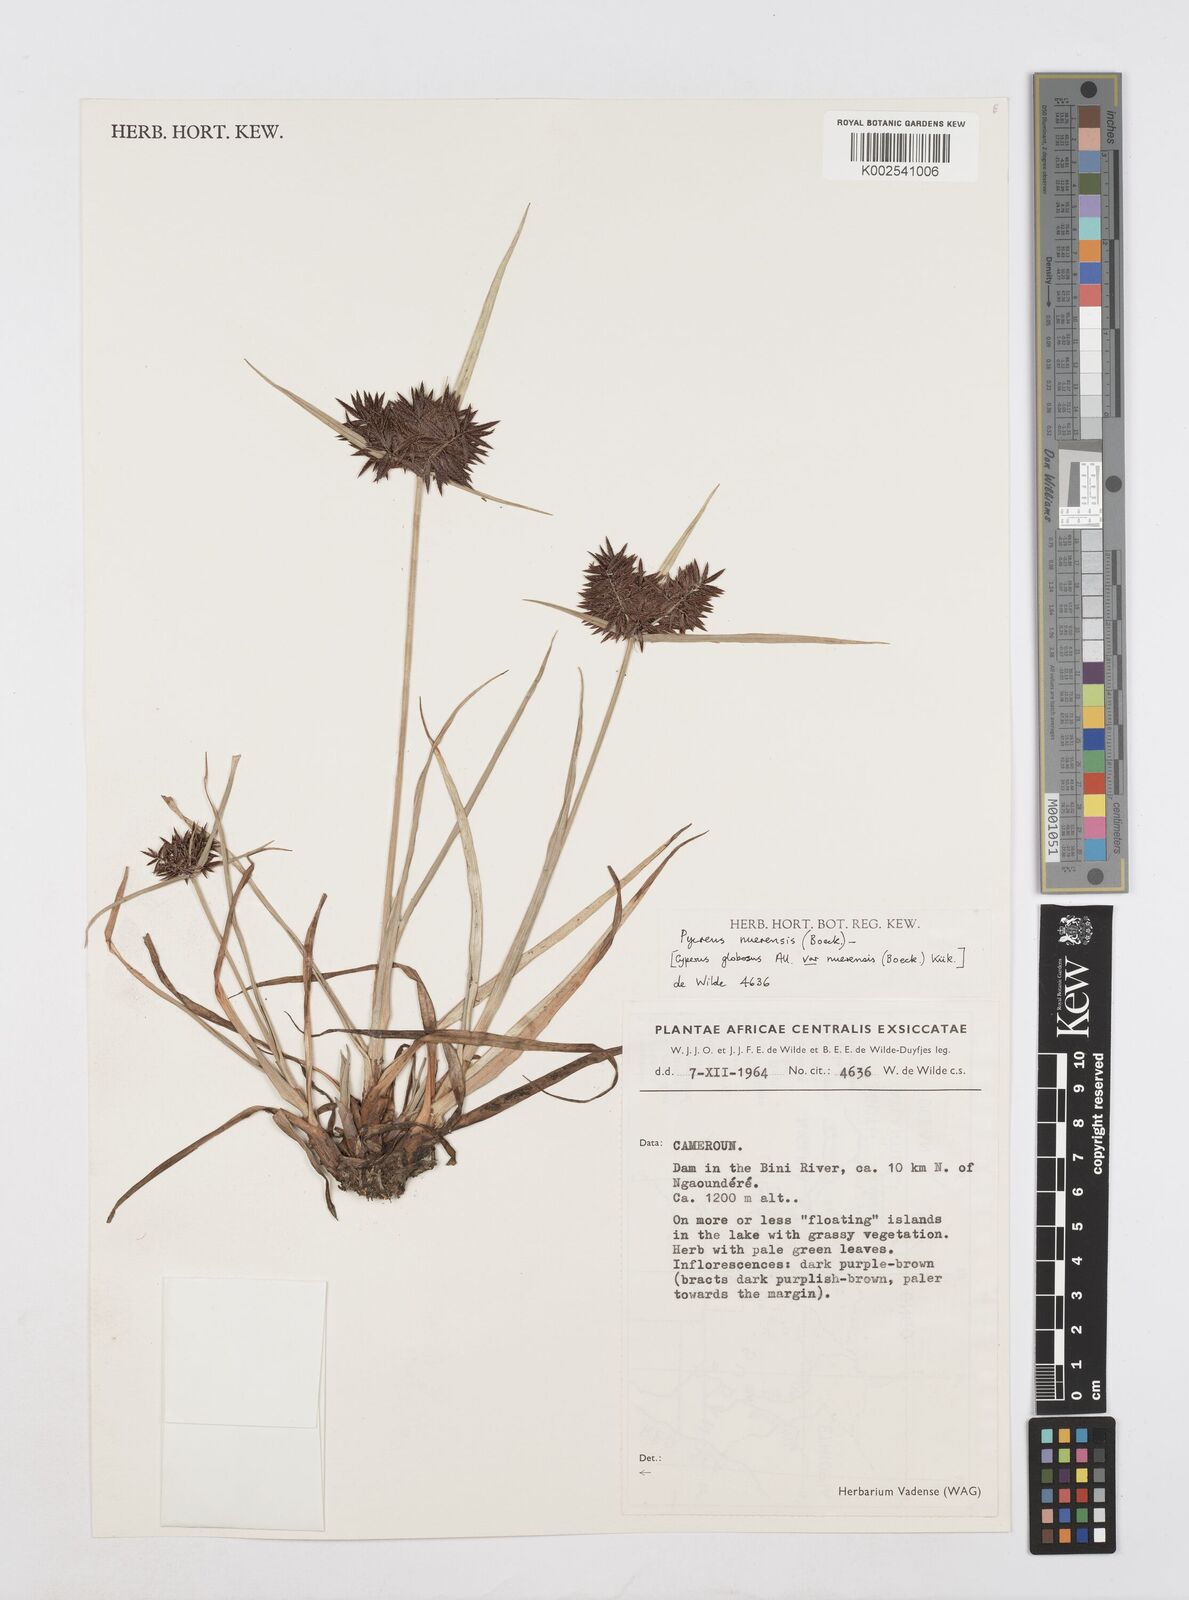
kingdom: Plantae
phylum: Tracheophyta
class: Liliopsida
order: Poales
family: Cyperaceae
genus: Cyperus
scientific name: Cyperus nuerensis
